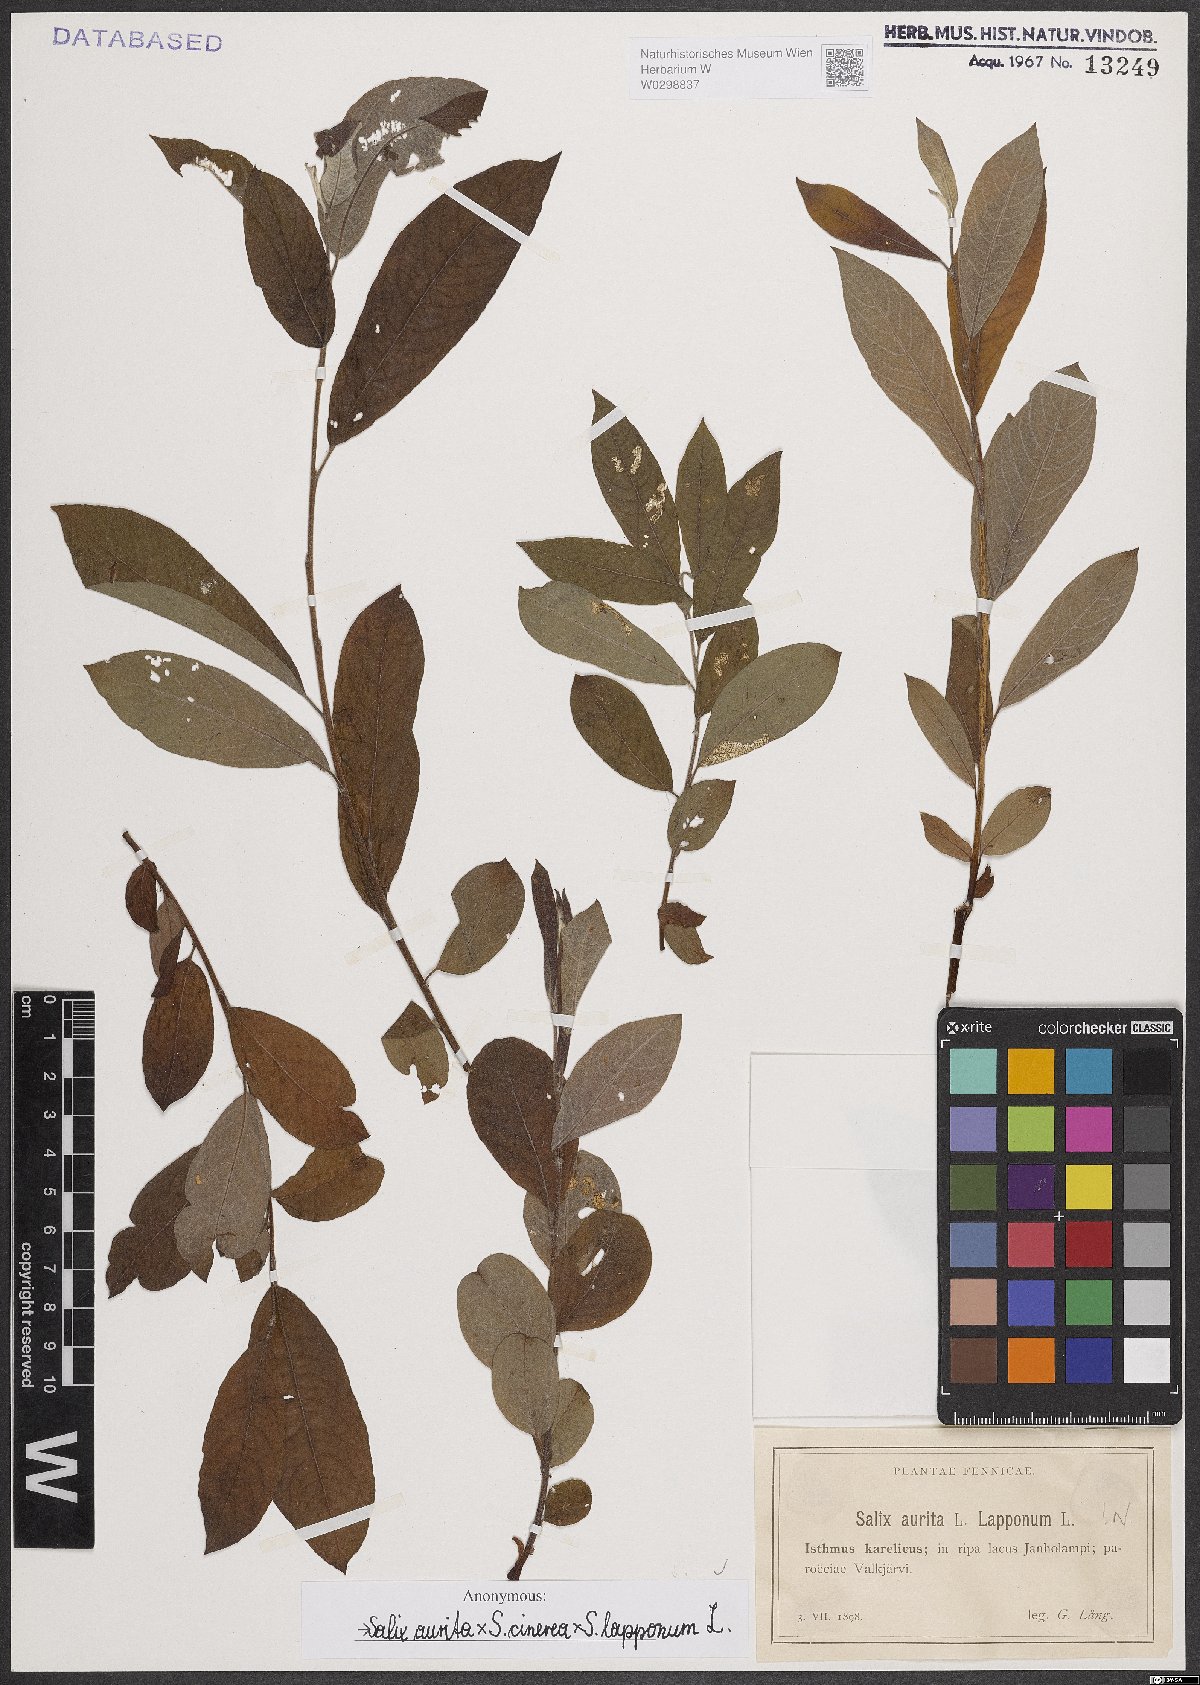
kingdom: Plantae
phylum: Tracheophyta
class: Magnoliopsida
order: Malpighiales
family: Salicaceae
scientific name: Salicaceae
